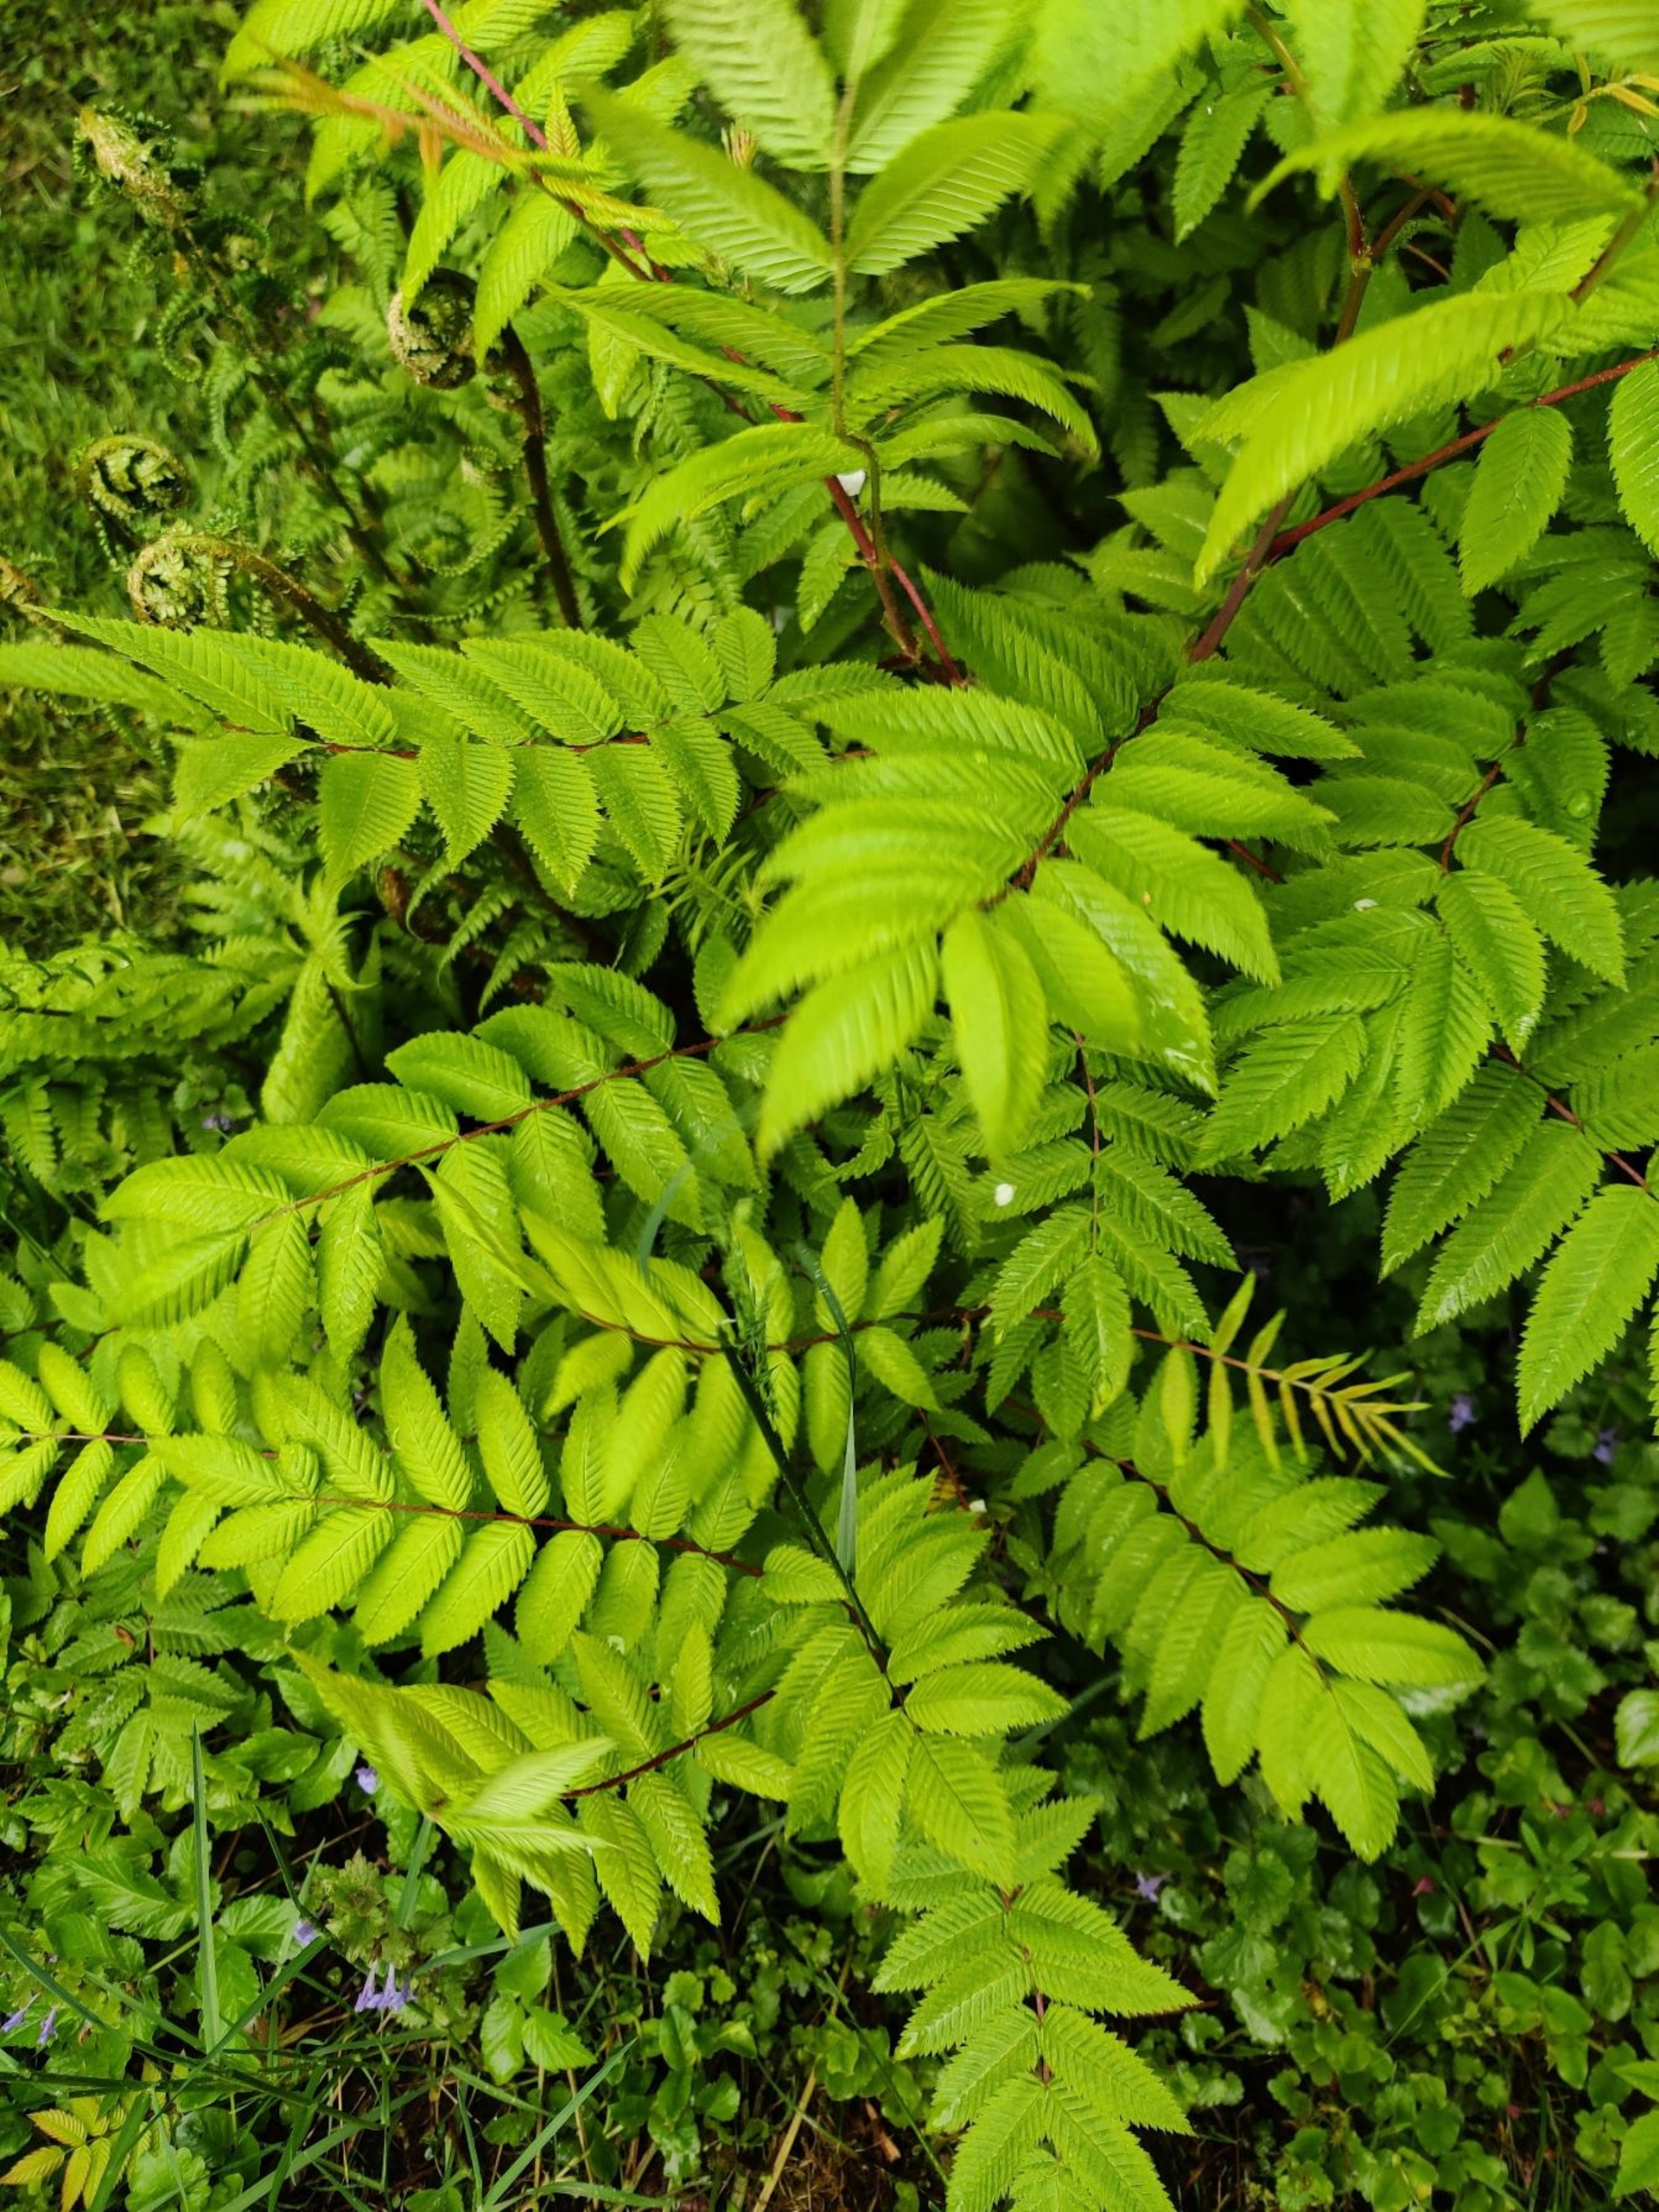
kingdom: Plantae
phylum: Tracheophyta
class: Magnoliopsida
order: Rosales
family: Rosaceae
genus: Sorbaria
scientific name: Sorbaria
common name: Tusindtopslægten
